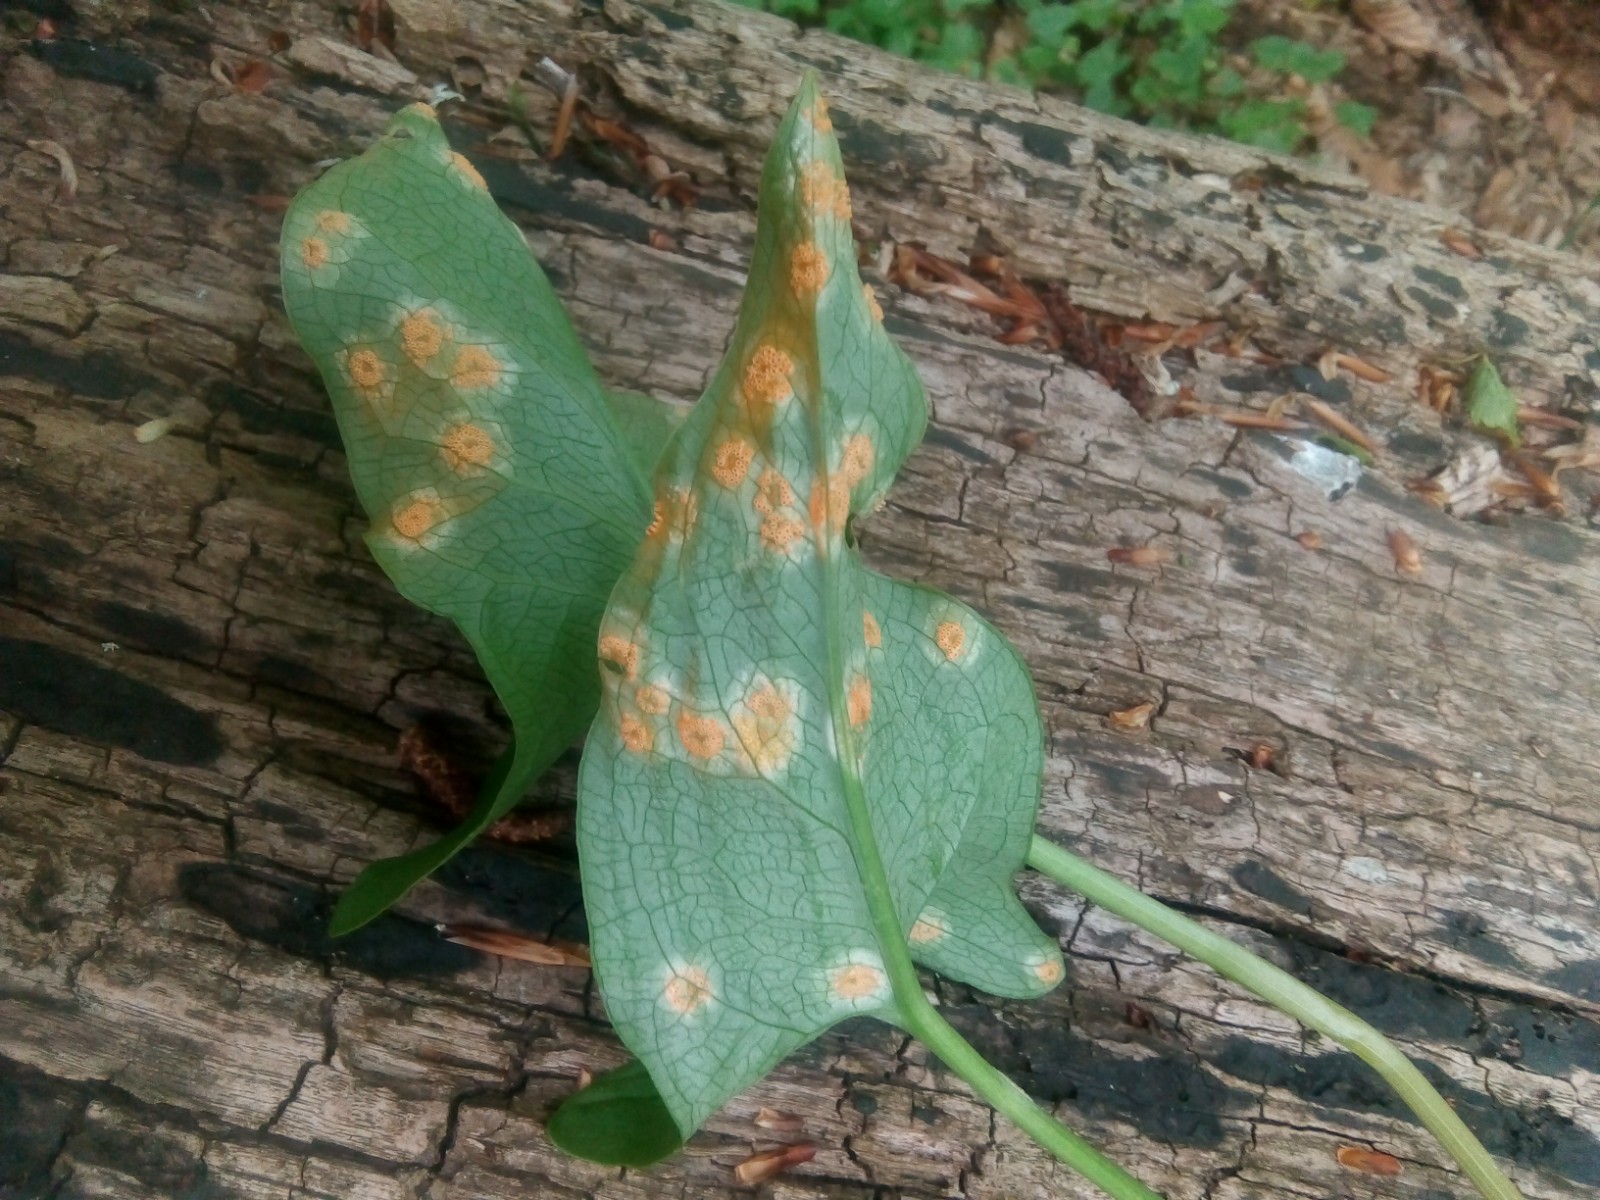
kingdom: Fungi
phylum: Basidiomycota
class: Pucciniomycetes
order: Pucciniales
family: Pucciniaceae
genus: Puccinia
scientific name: Puccinia sessilis
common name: Arum rust
